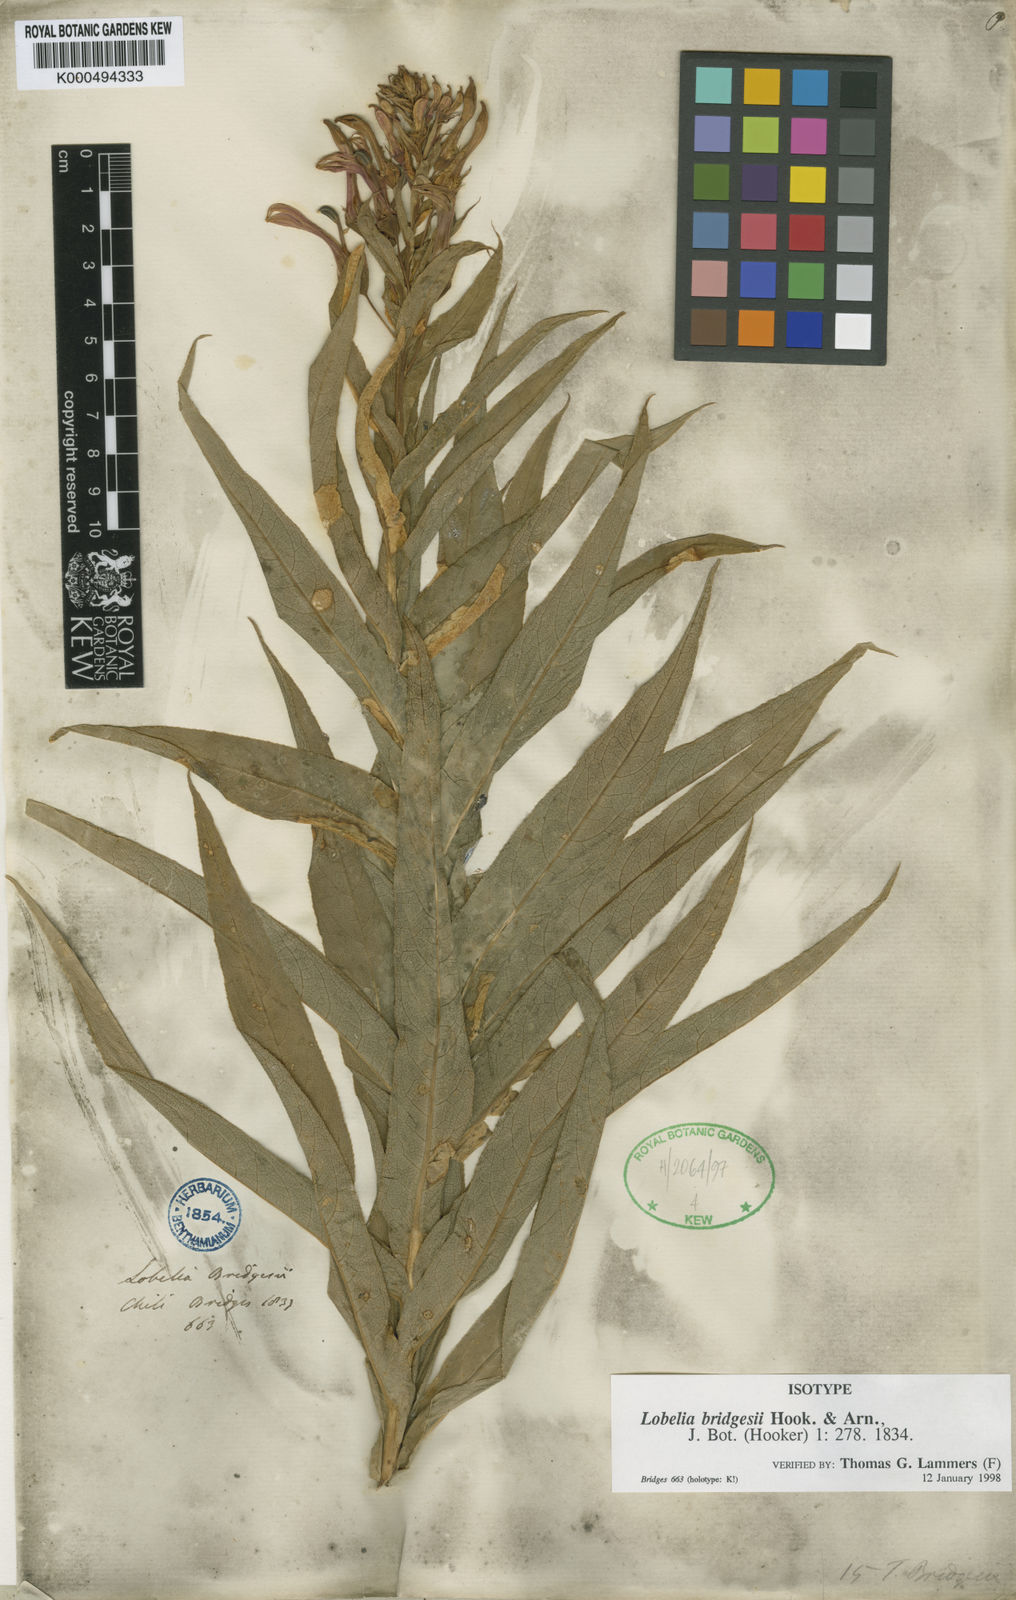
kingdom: Plantae
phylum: Tracheophyta
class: Magnoliopsida
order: Asterales
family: Campanulaceae
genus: Lobelia
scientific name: Lobelia bridgesii
